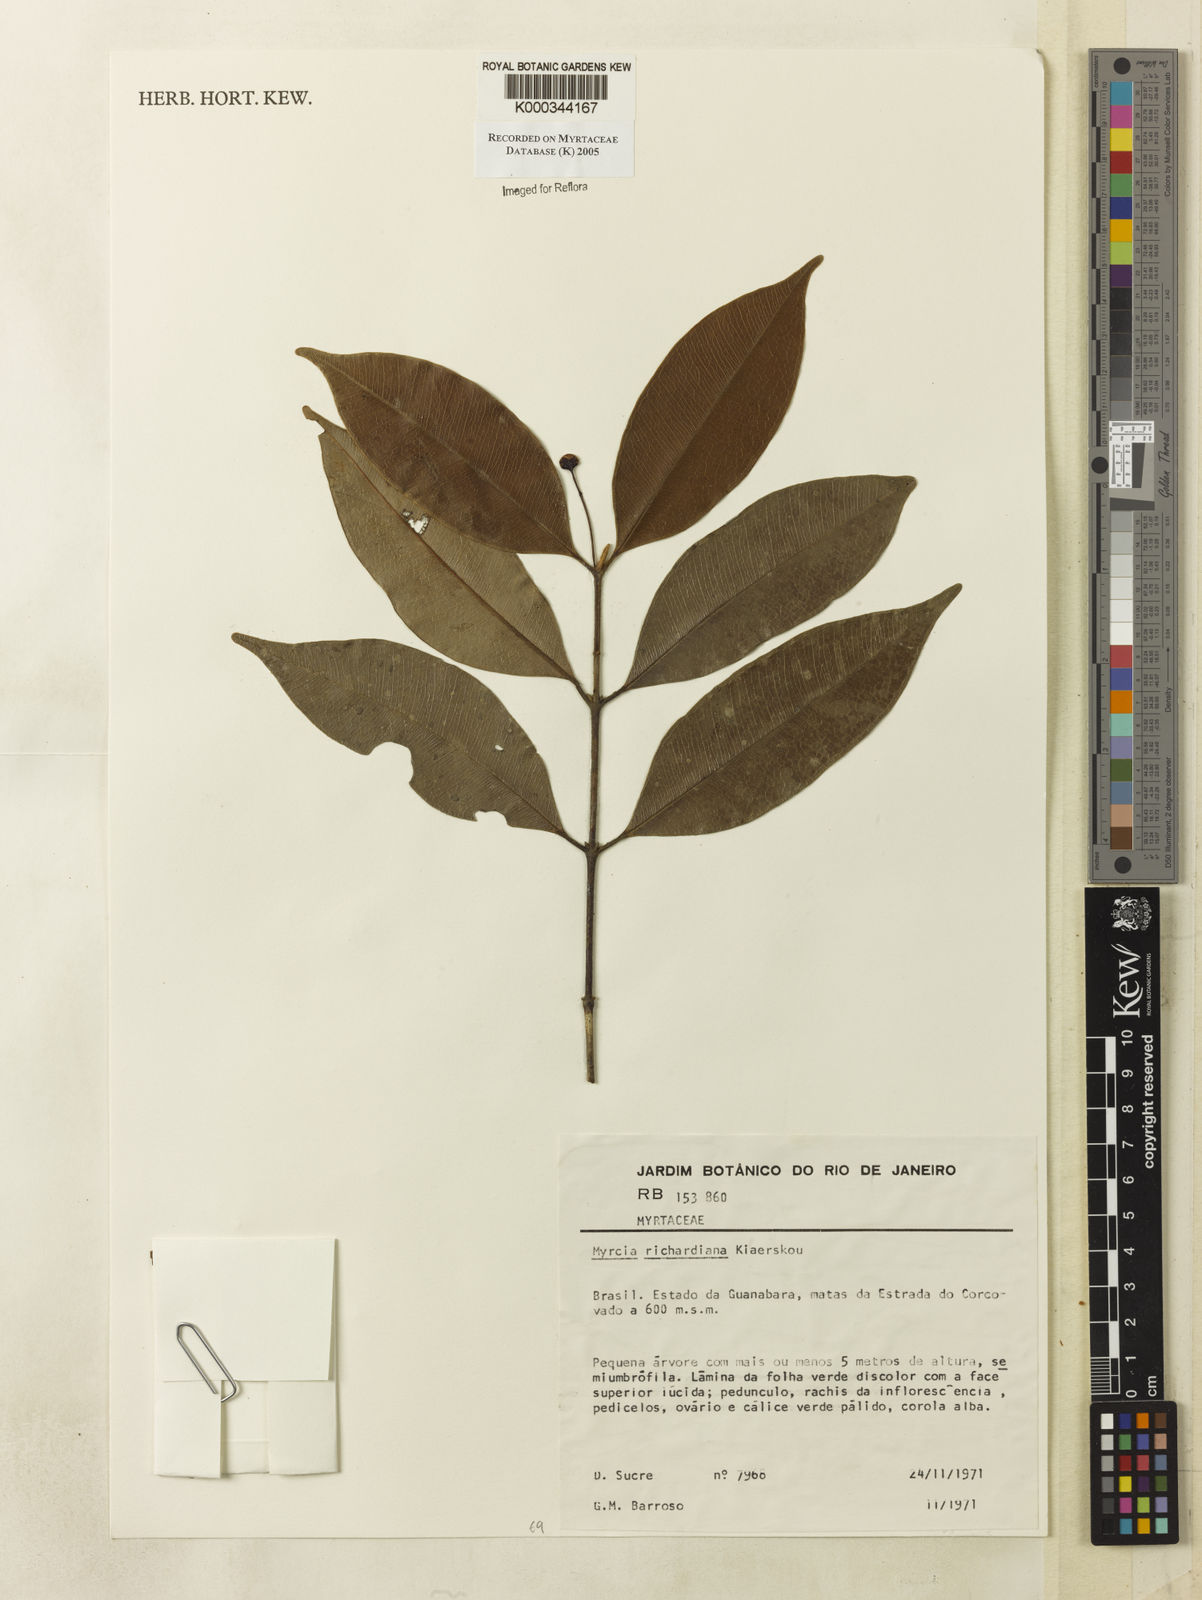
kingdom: Plantae
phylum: Tracheophyta
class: Magnoliopsida
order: Myrtales
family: Myrtaceae
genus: Myrcia
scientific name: Myrcia richardiana
